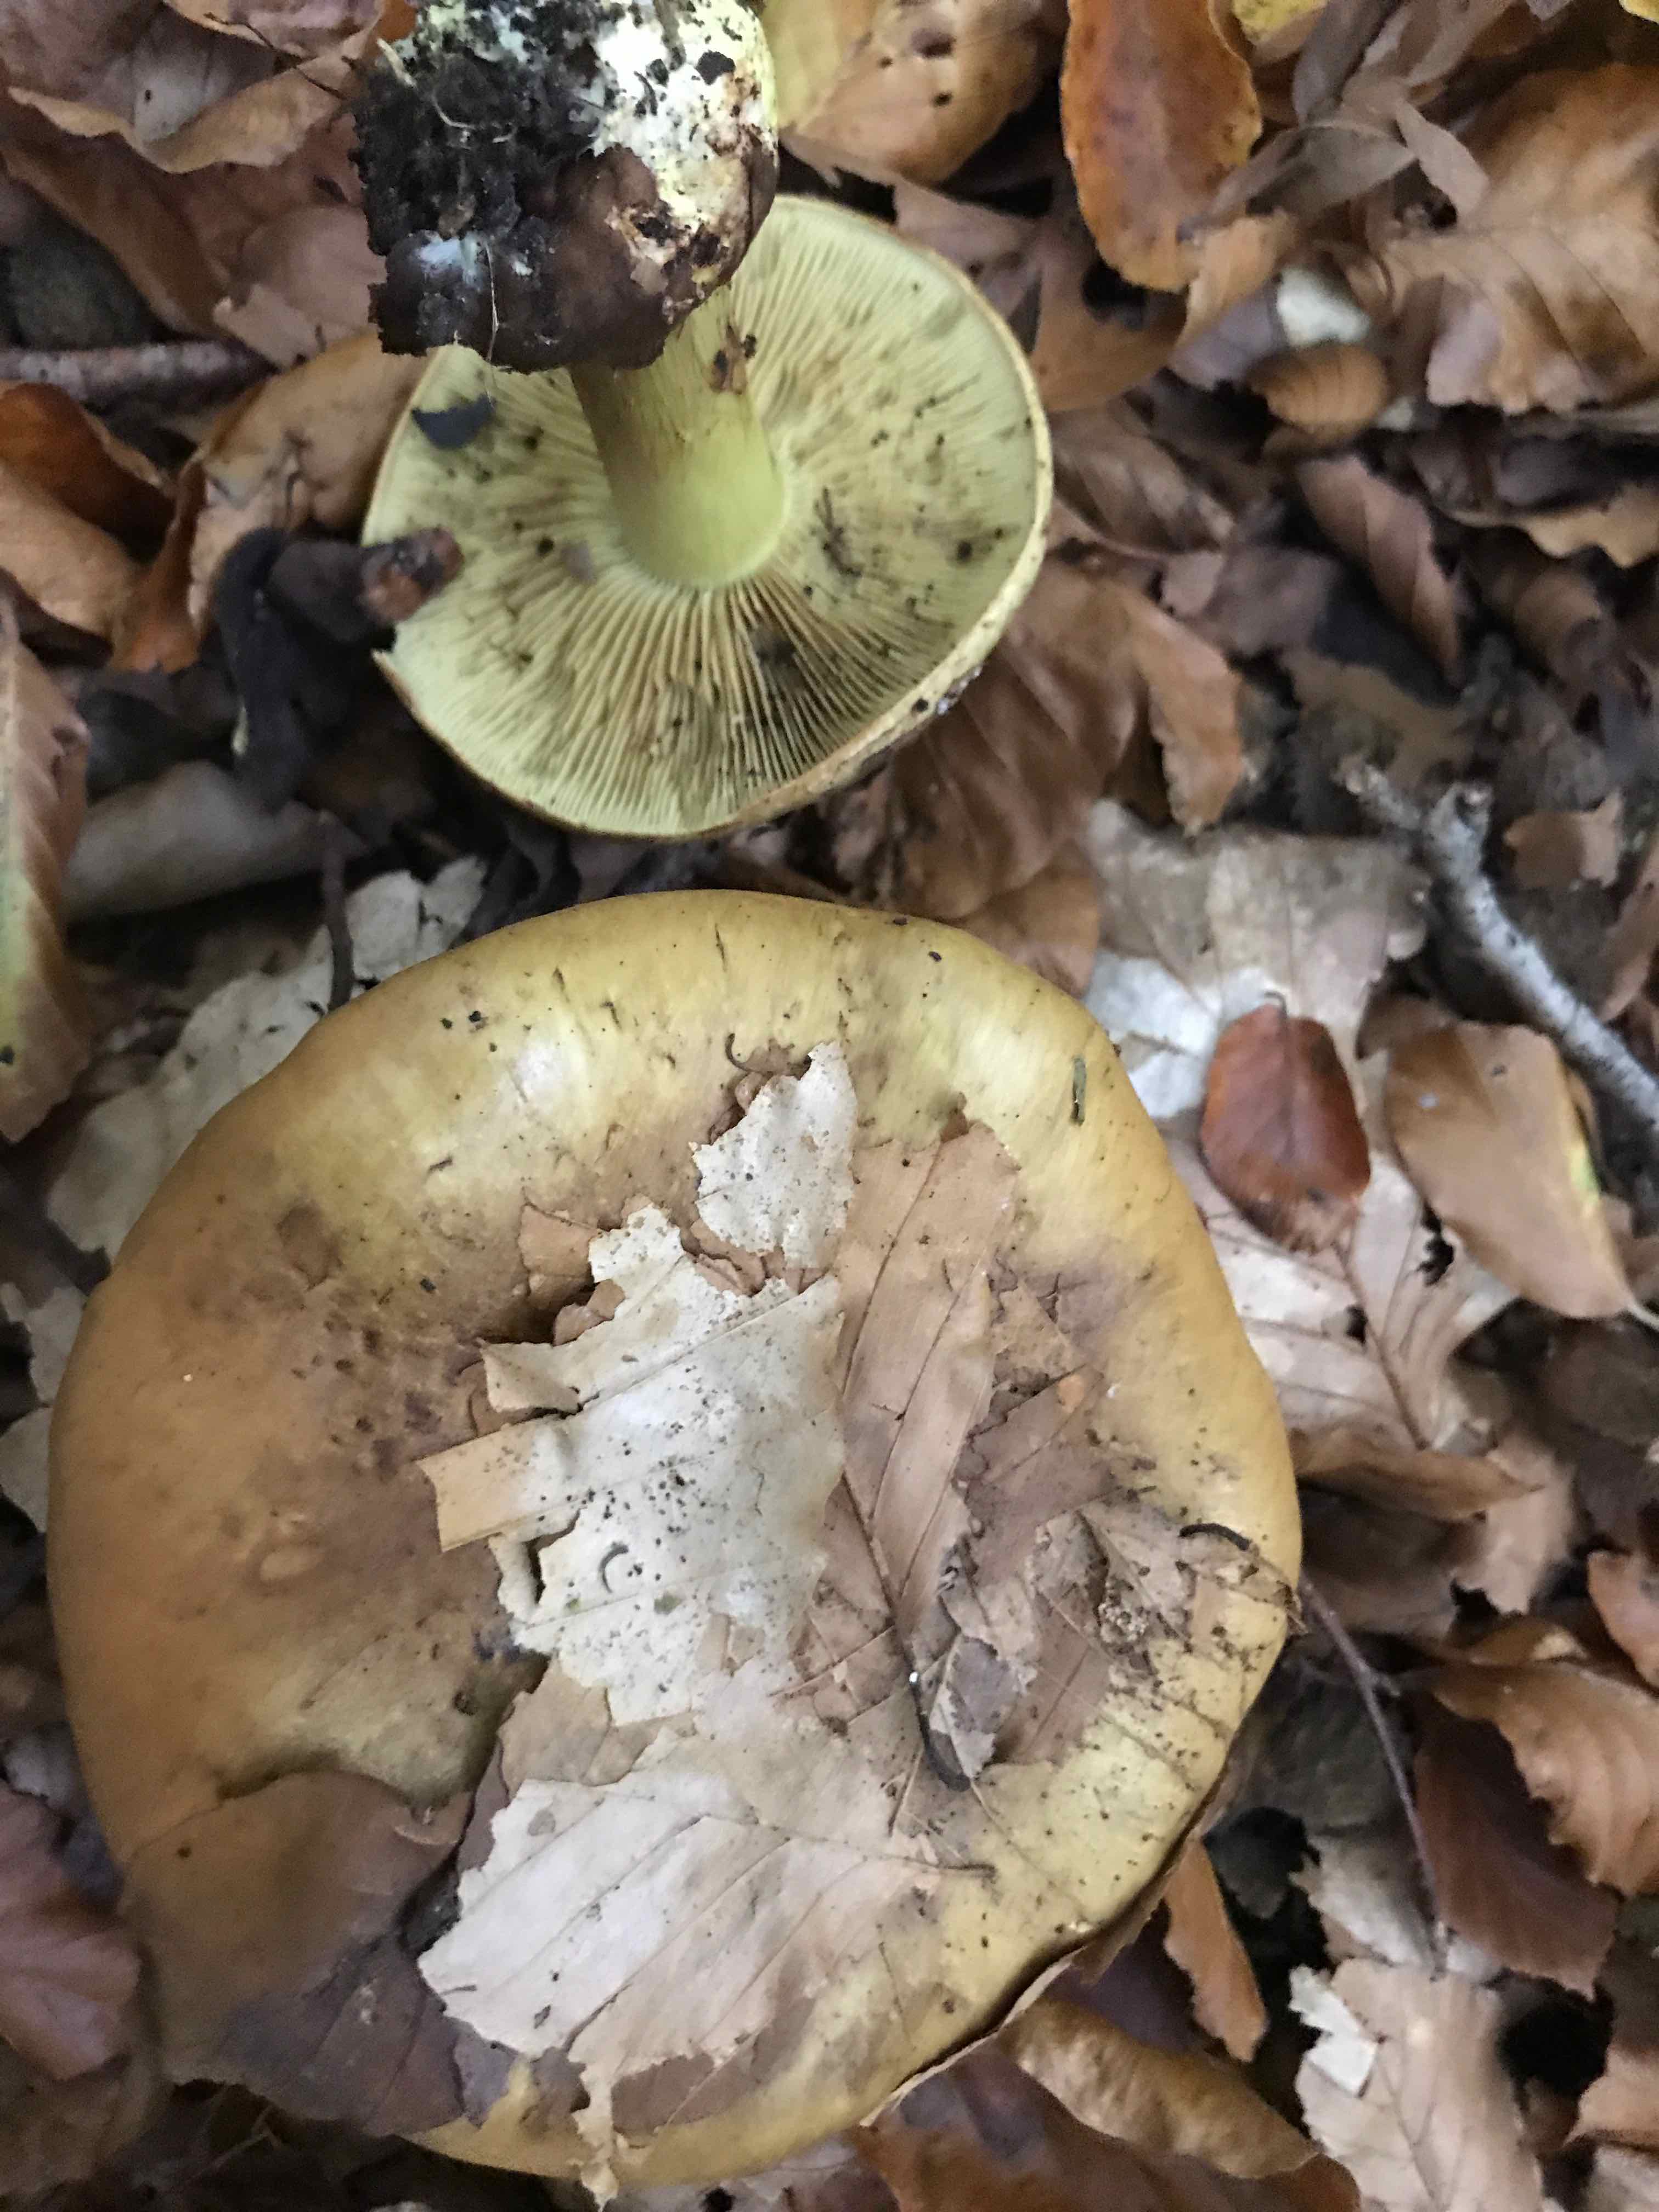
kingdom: Fungi
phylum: Basidiomycota
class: Agaricomycetes
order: Agaricales
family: Cortinariaceae
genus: Calonarius
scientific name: Calonarius citrinus
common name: citrongul slørhat
